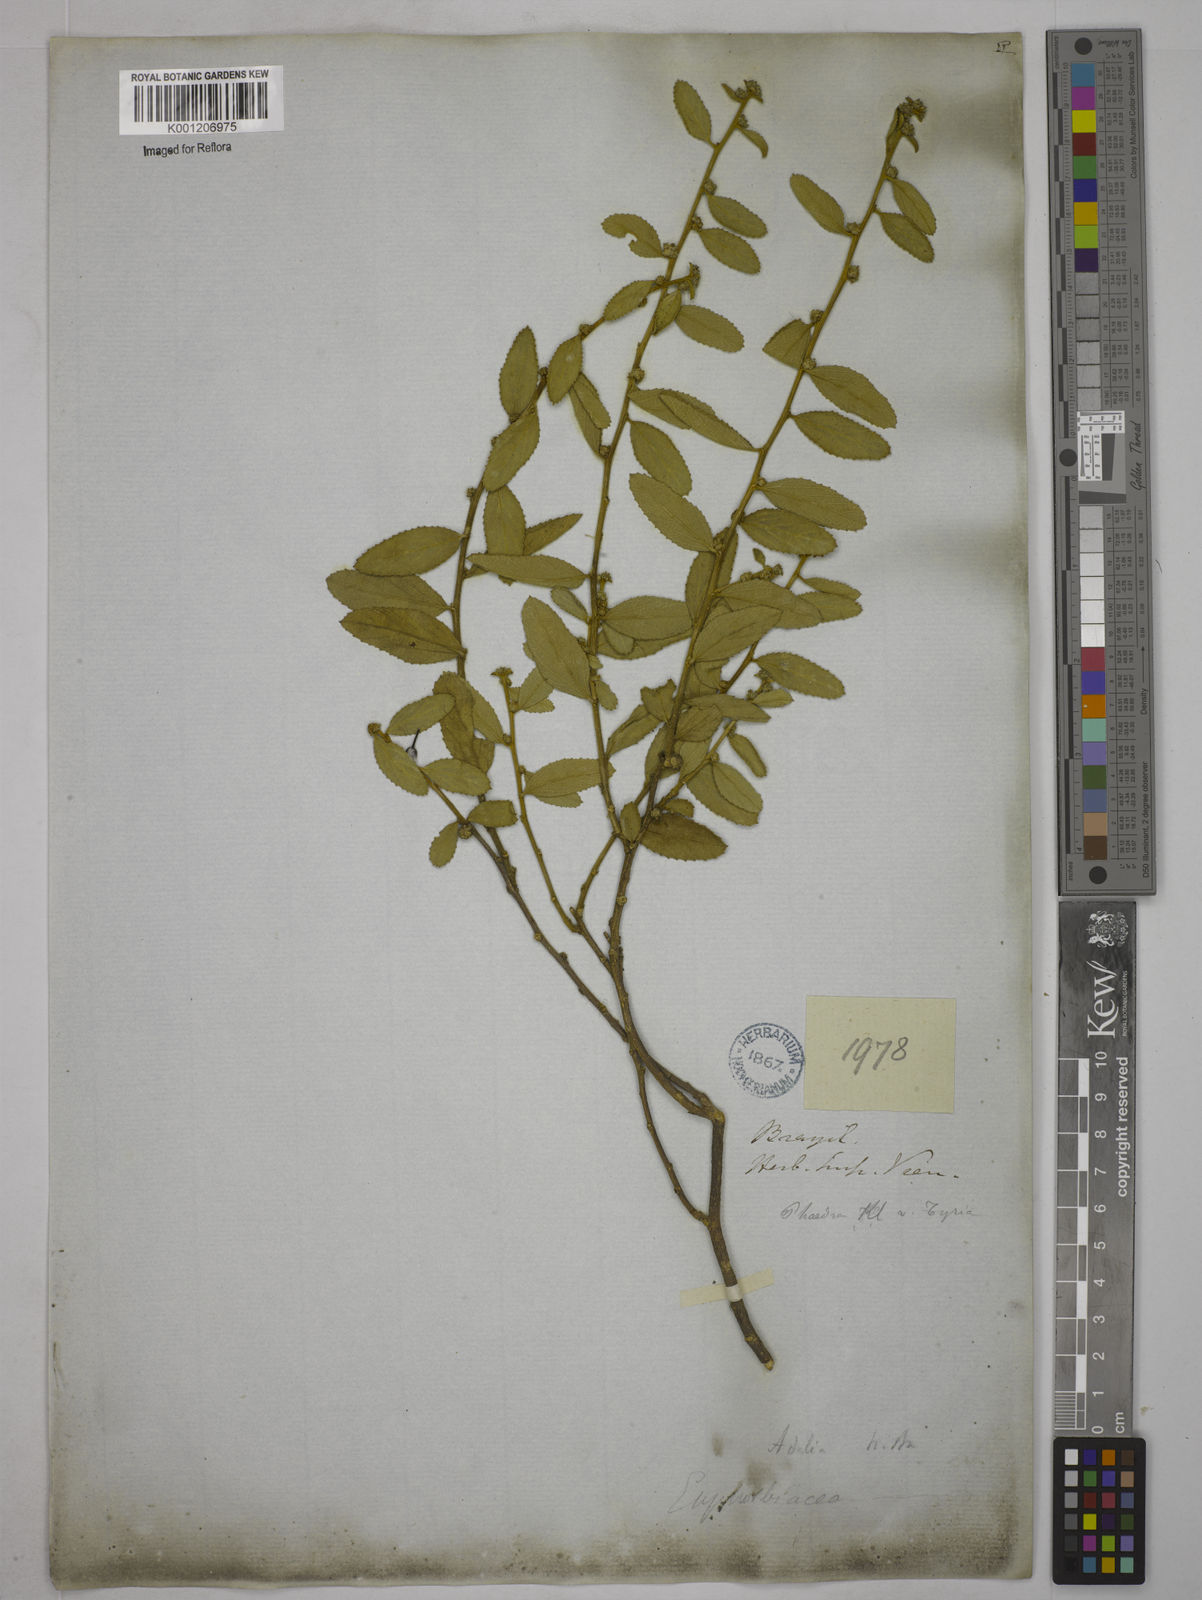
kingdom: Plantae
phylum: Tracheophyta
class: Magnoliopsida
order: Malpighiales
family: Euphorbiaceae
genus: Bernardia
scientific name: Bernardia gardneri
